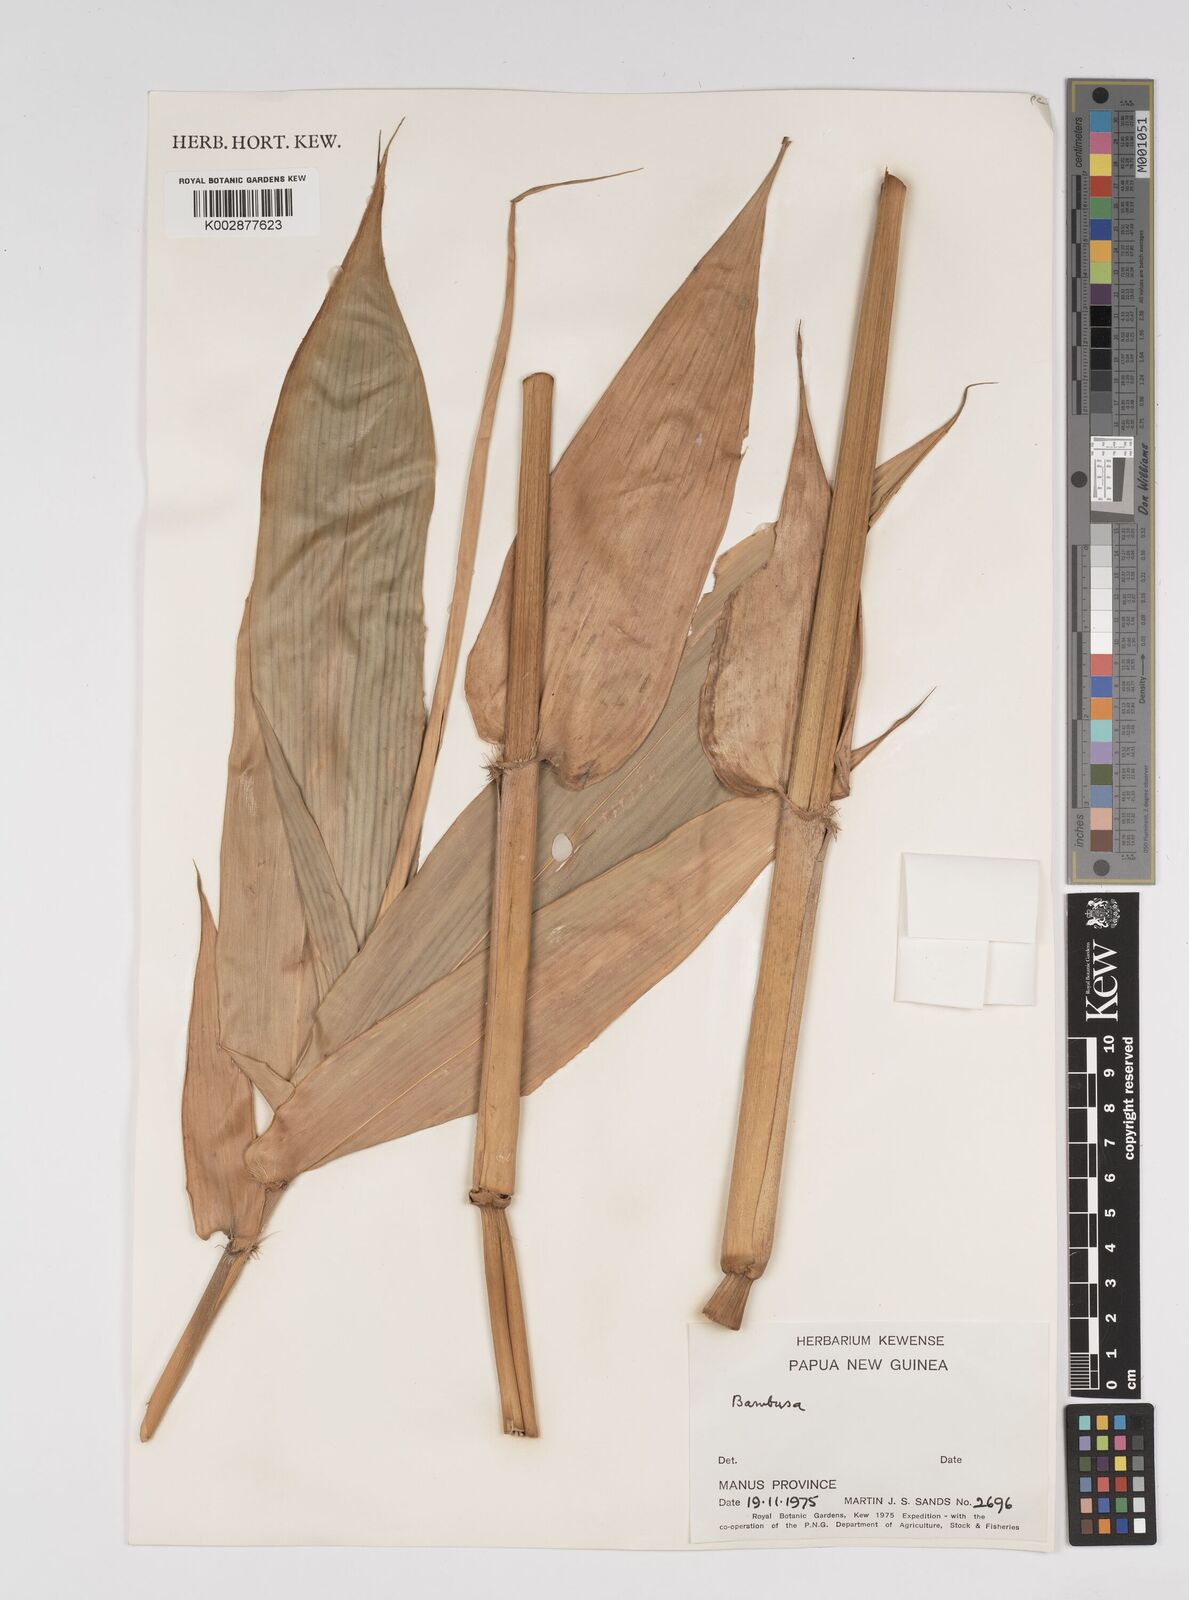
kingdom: Plantae
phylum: Tracheophyta
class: Liliopsida
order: Poales
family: Poaceae
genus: Dendrocalamus
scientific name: Dendrocalamus strictus
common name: Male bamboo
